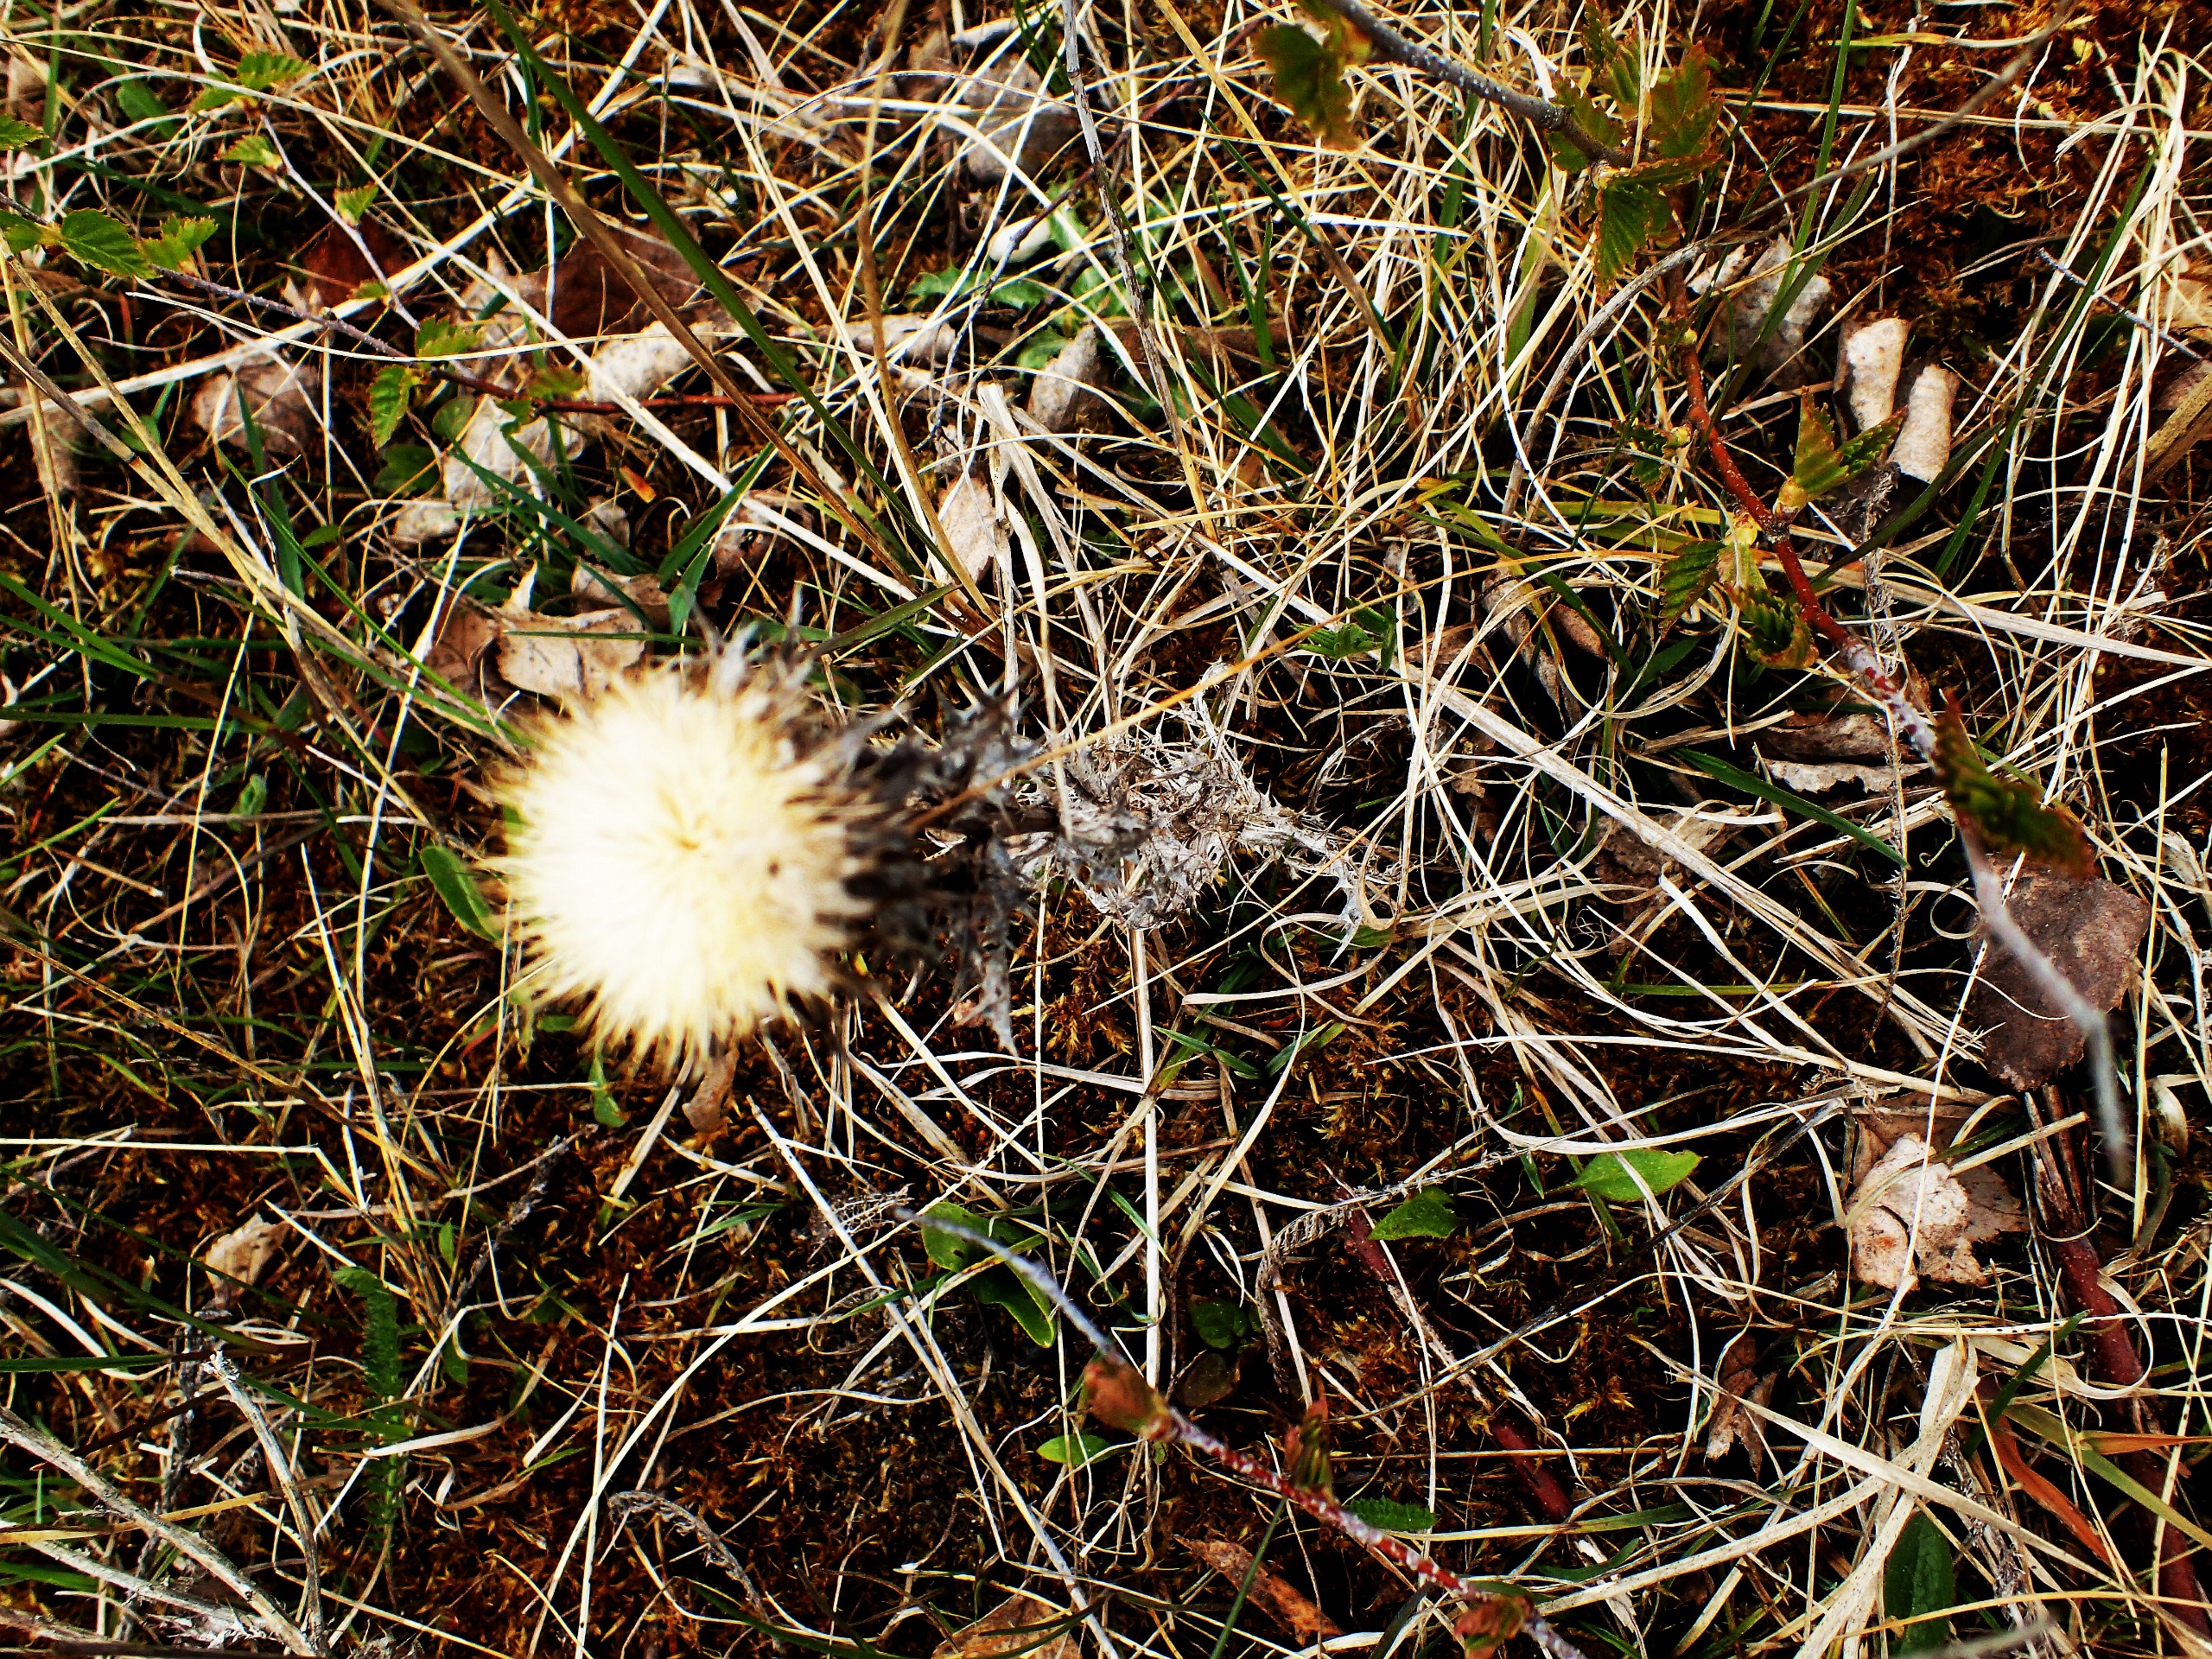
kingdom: Plantae
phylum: Tracheophyta
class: Magnoliopsida
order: Asterales
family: Asteraceae
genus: Carlina
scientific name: Carlina vulgaris
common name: Bakketidsel
